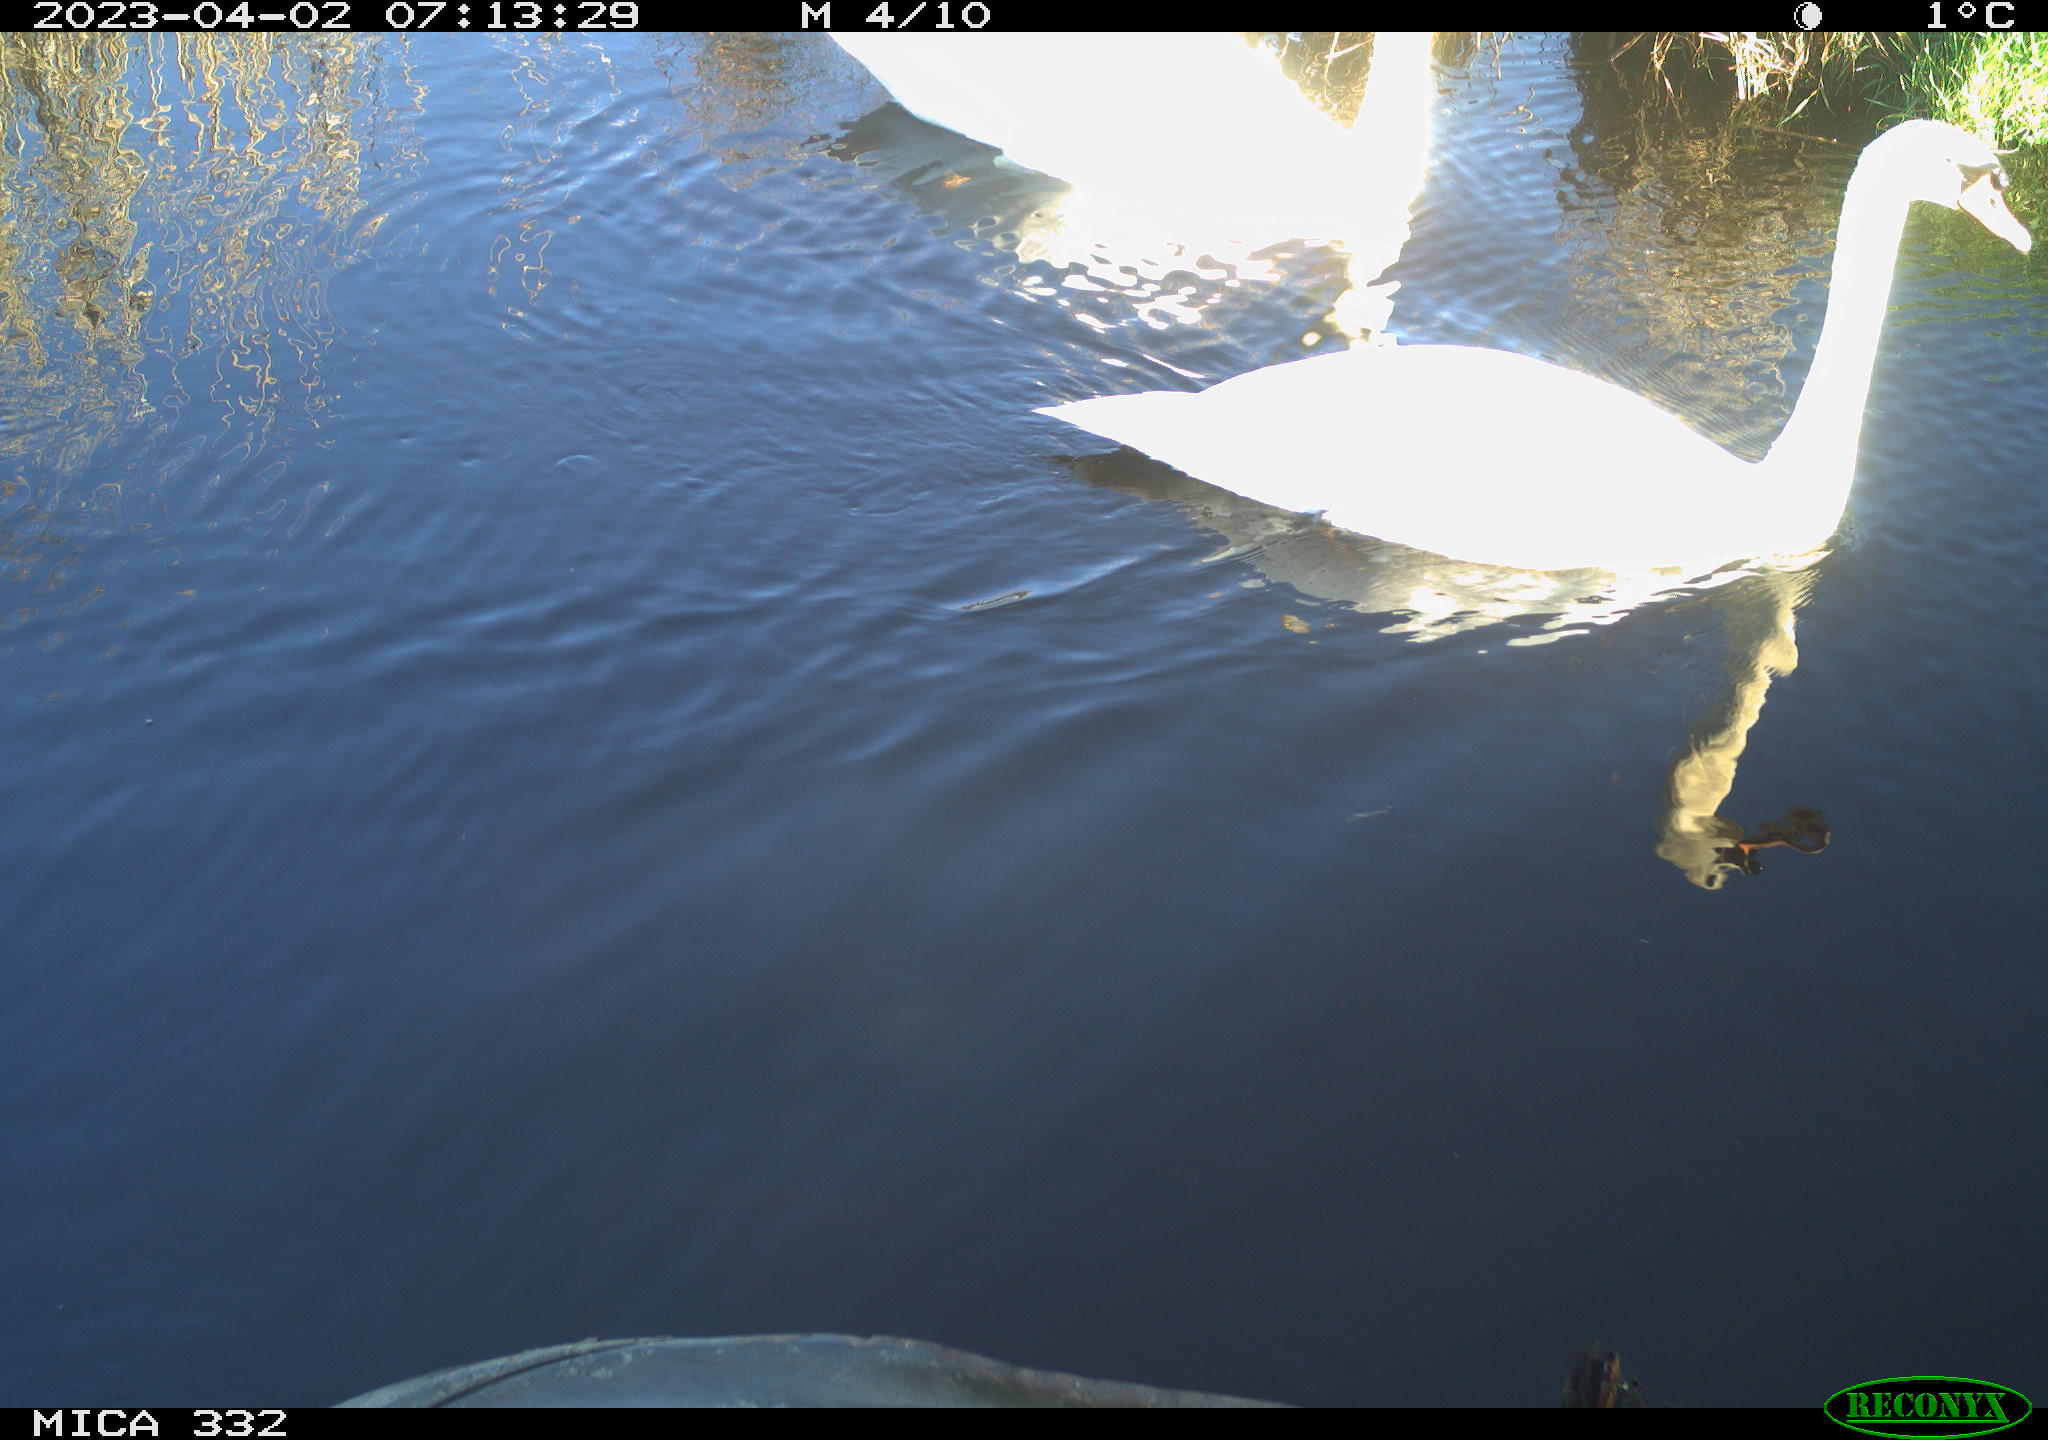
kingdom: Animalia
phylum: Chordata
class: Aves
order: Anseriformes
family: Anatidae
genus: Cygnus
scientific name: Cygnus olor
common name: Mute swan
